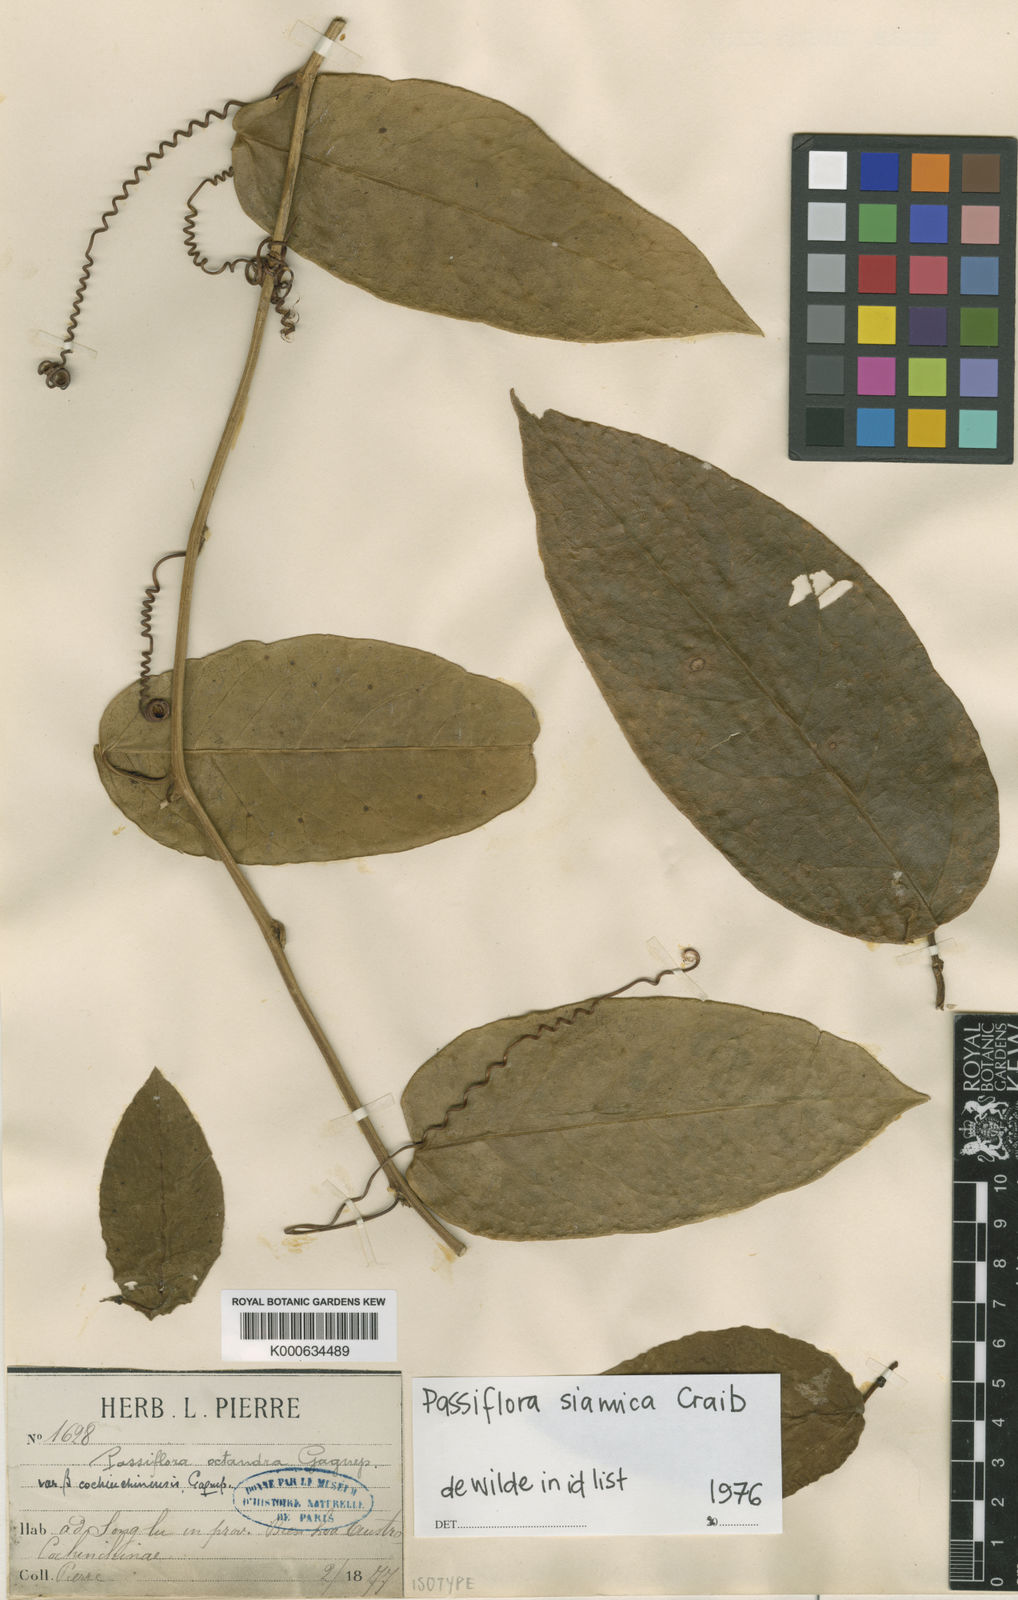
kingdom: Plantae
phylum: Tracheophyta
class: Magnoliopsida
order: Malpighiales
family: Passifloraceae
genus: Passiflora
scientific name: Passiflora siamica
